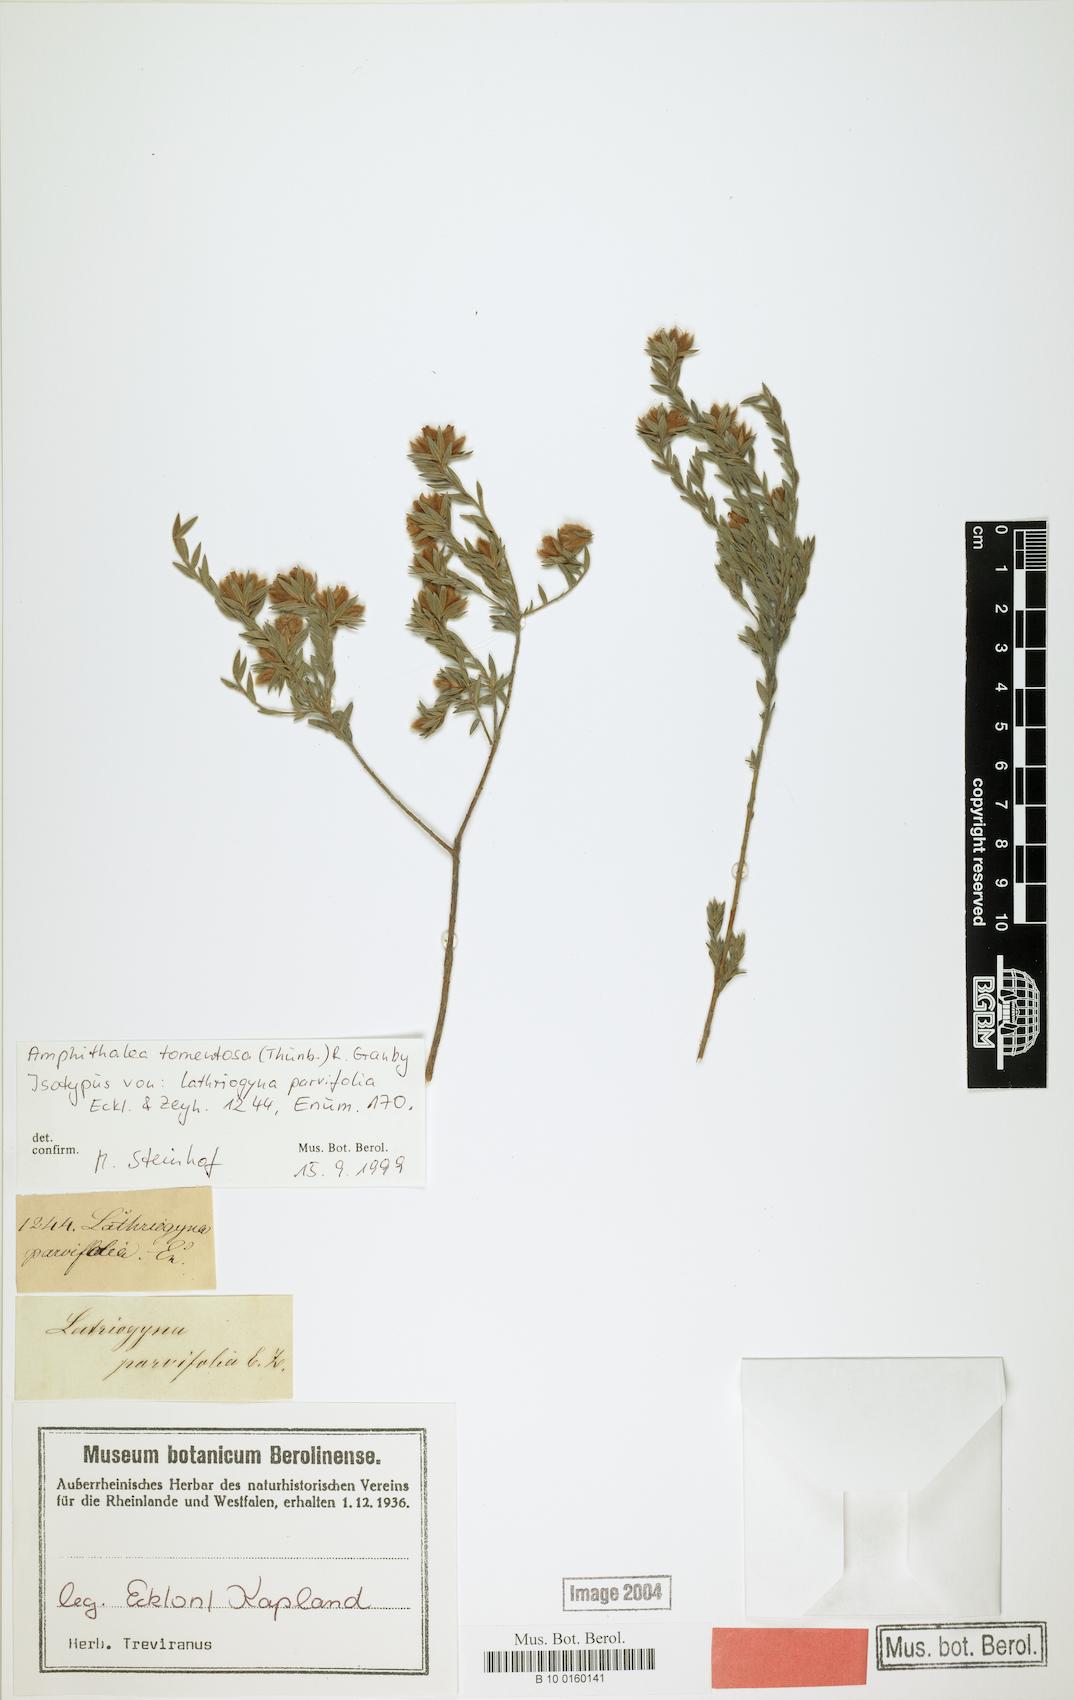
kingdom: Plantae
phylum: Tracheophyta
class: Magnoliopsida
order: Fabales
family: Fabaceae
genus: Amphithalea
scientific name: Amphithalea tomentosa
